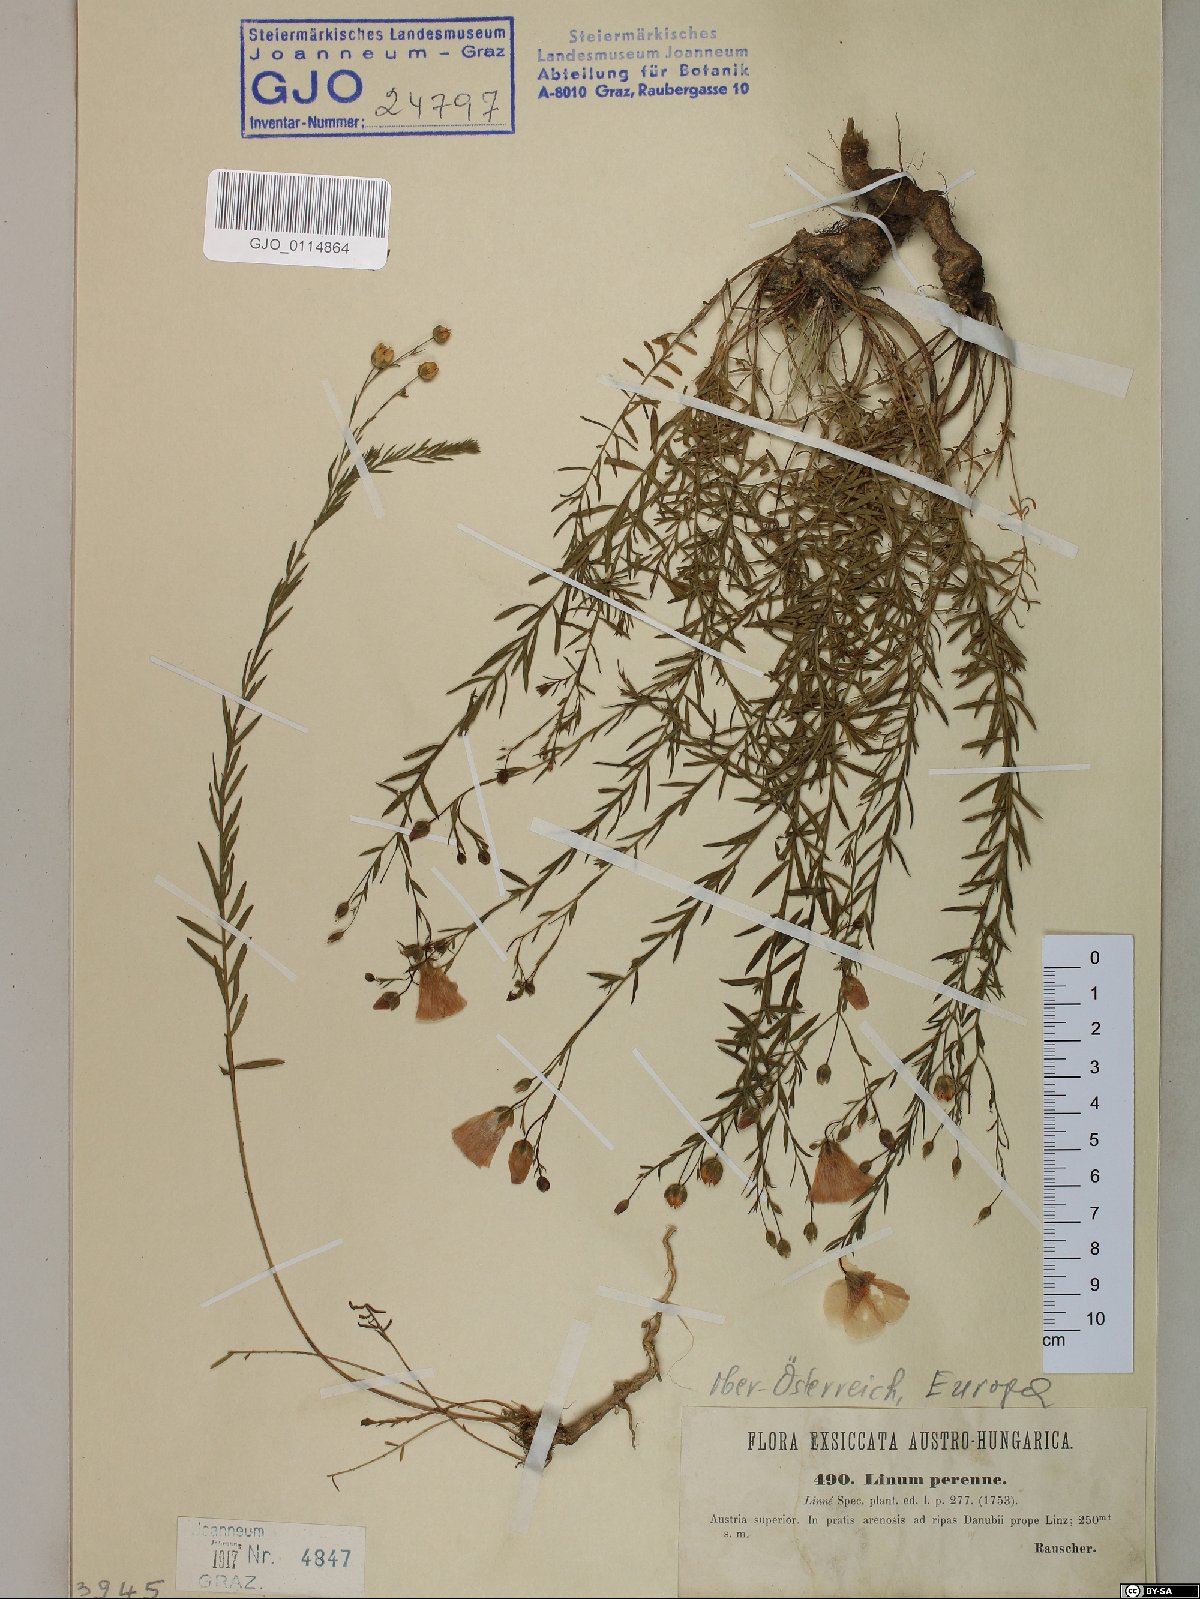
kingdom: Plantae
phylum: Tracheophyta
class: Magnoliopsida
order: Malpighiales
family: Linaceae
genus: Linum
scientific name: Linum perenne
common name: Blue flax
